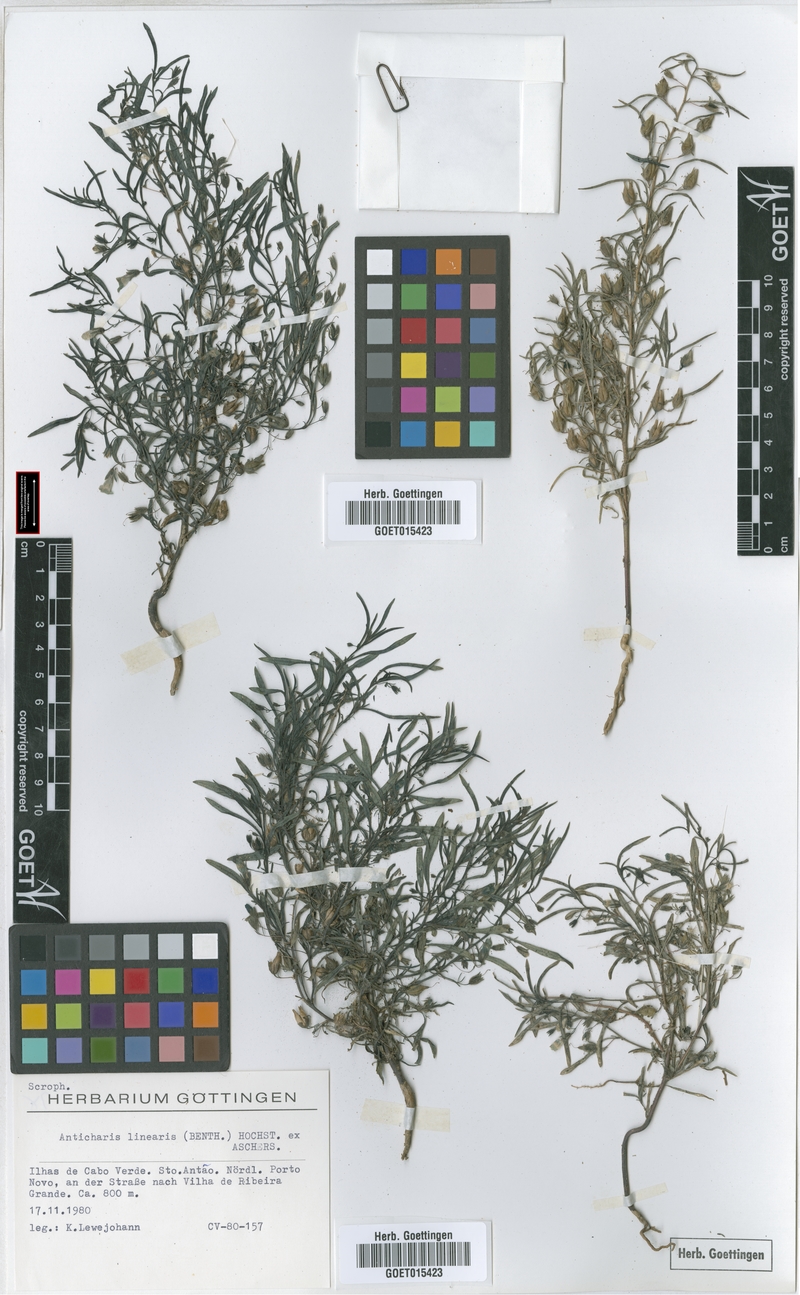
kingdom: Plantae
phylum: Tracheophyta
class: Magnoliopsida
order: Lamiales
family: Scrophulariaceae
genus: Anticharis
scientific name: Anticharis senegalensis
